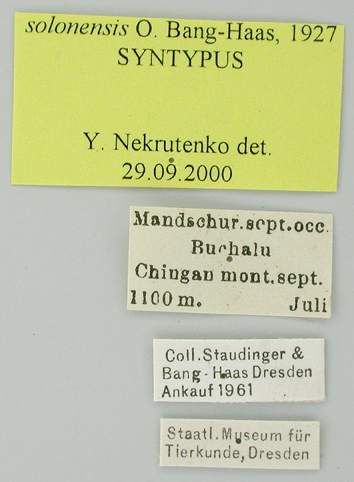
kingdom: Animalia
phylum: Arthropoda
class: Insecta
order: Lepidoptera
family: Papilionidae
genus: Parnassius
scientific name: Parnassius bremeri
